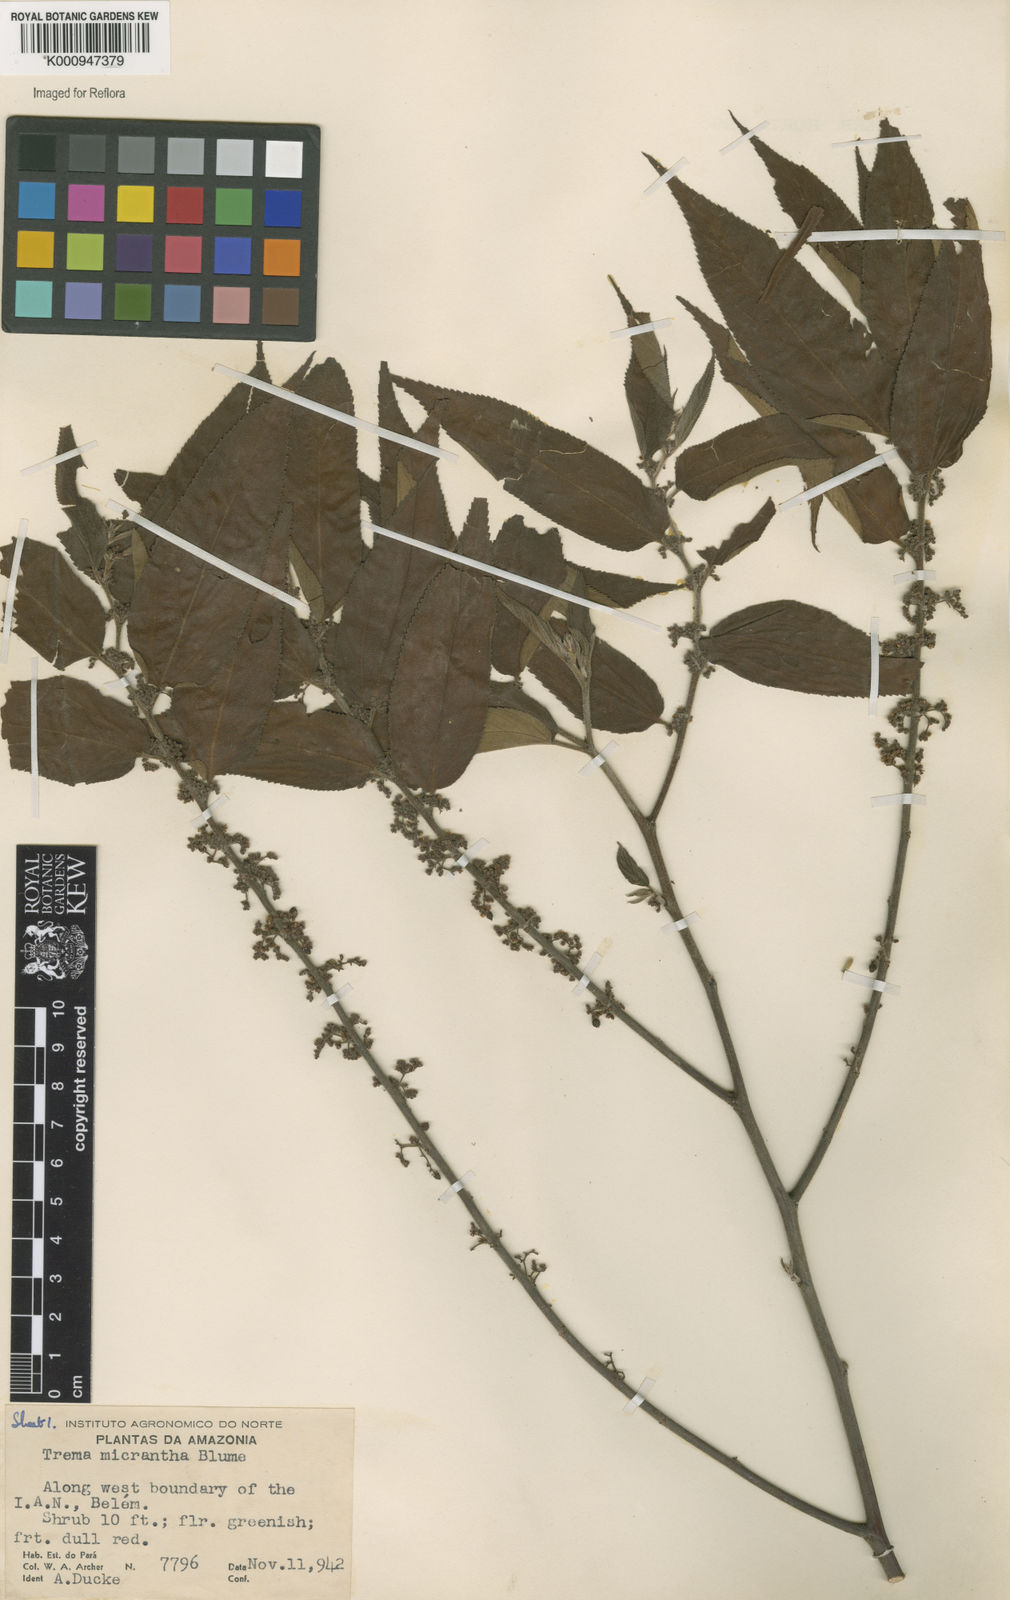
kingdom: Plantae
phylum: Tracheophyta
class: Magnoliopsida
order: Rosales
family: Cannabaceae
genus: Trema
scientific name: Trema micranthum
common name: Jamaican nettletree
